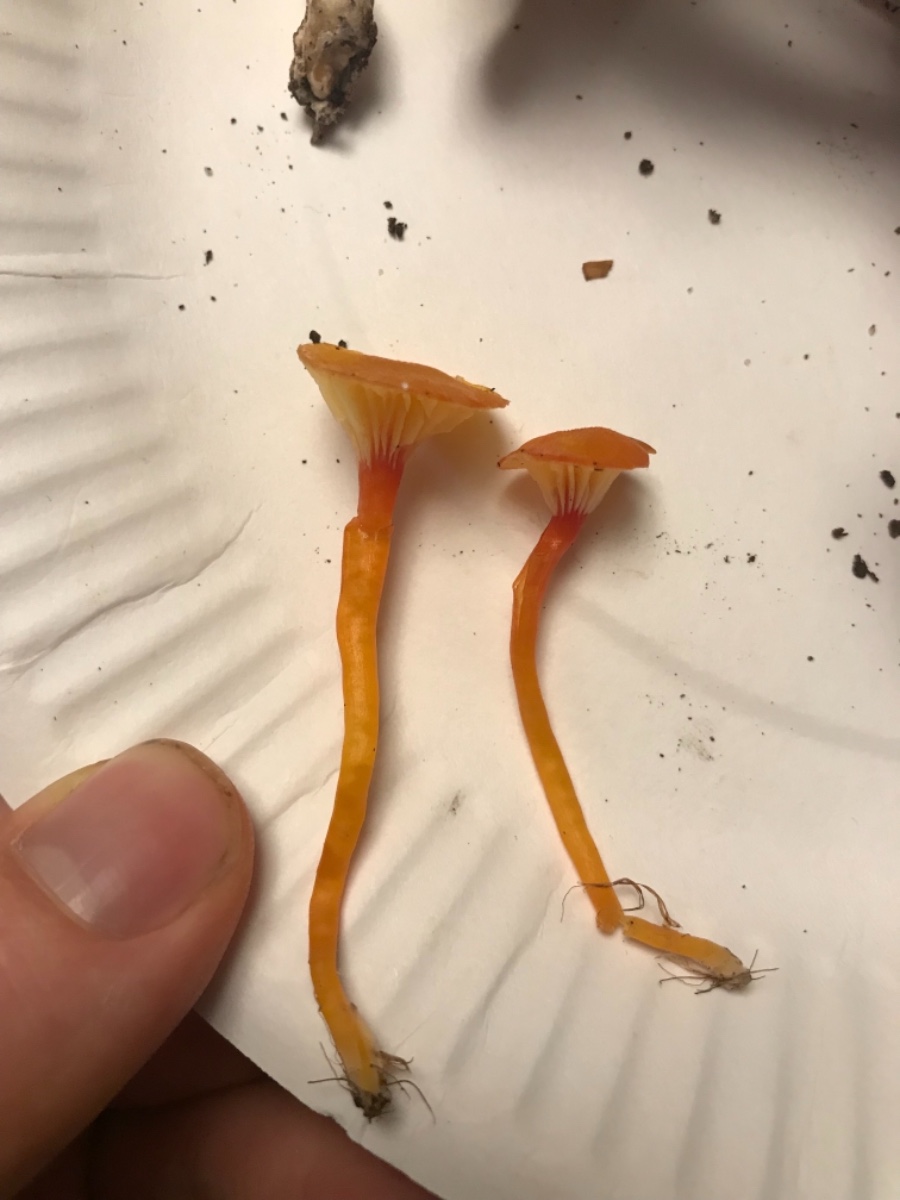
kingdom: Fungi
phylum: Basidiomycota
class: Agaricomycetes
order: Agaricales
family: Hygrophoraceae
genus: Hygrocybe
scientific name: Hygrocybe insipida
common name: liden vokshat
